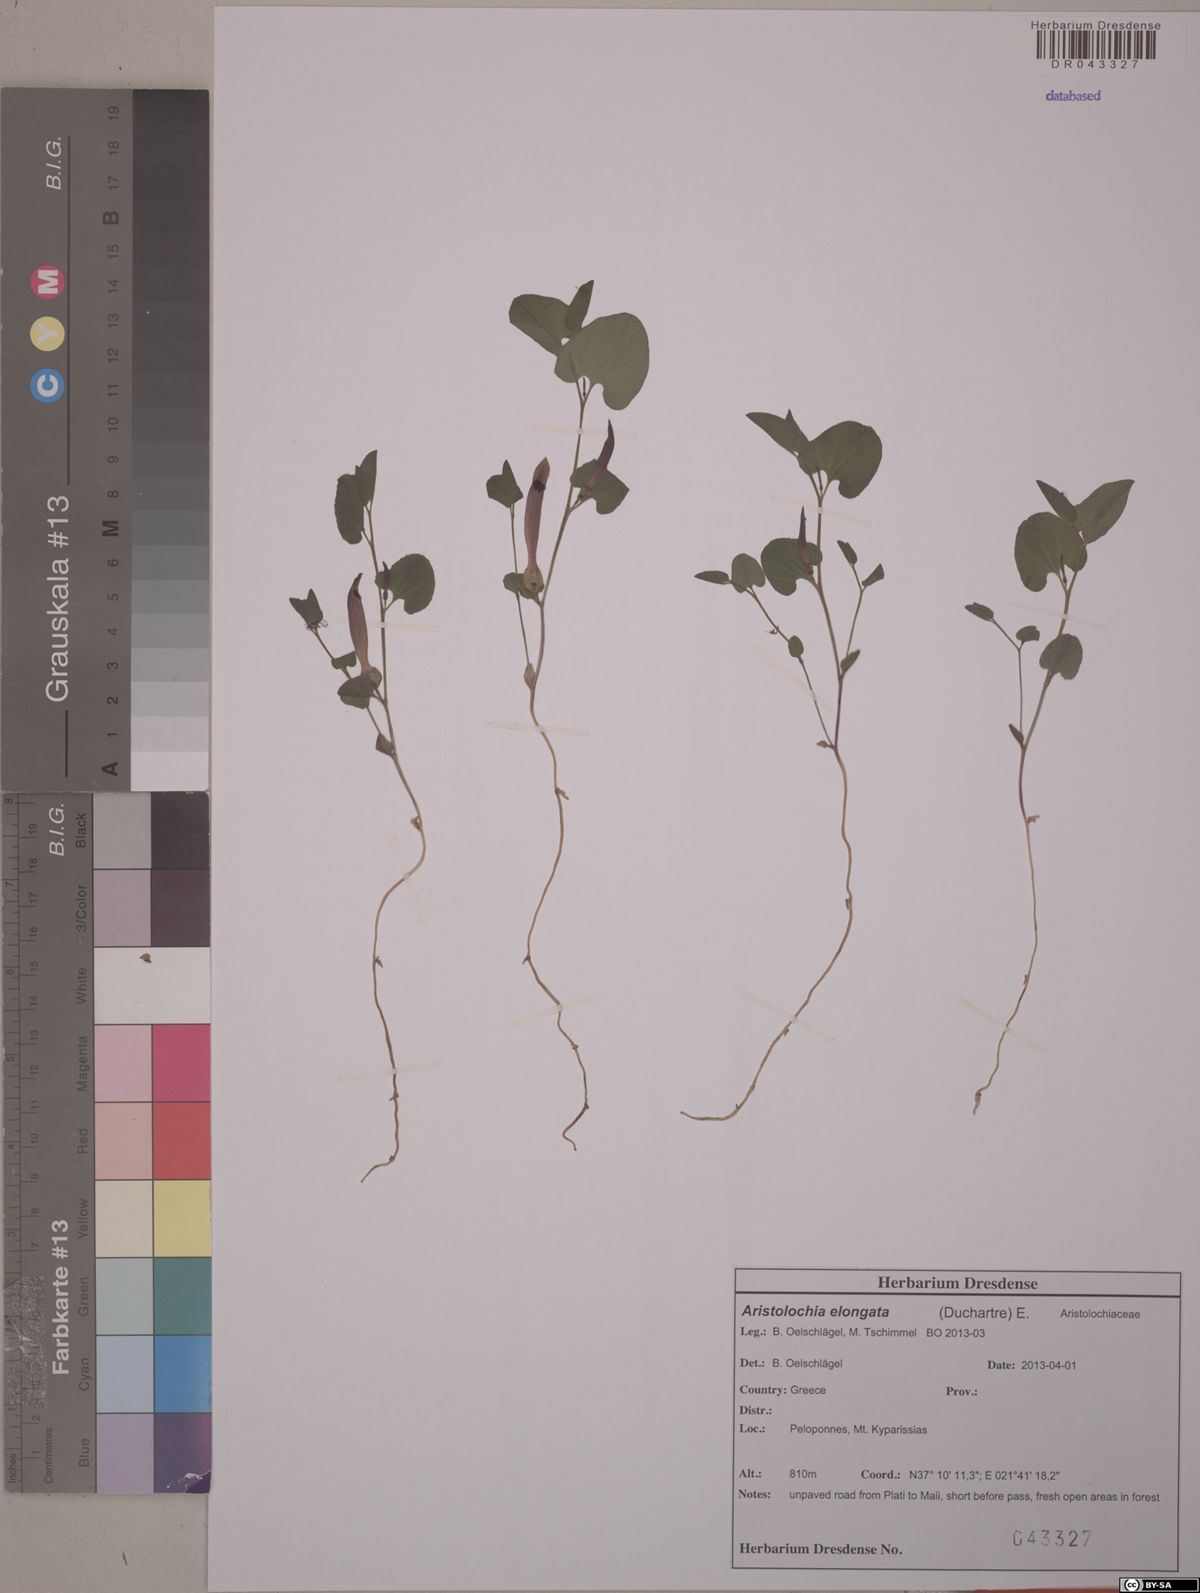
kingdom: Plantae
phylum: Tracheophyta
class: Magnoliopsida
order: Piperales
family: Aristolochiaceae
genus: Aristolochia
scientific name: Aristolochia nardiana
